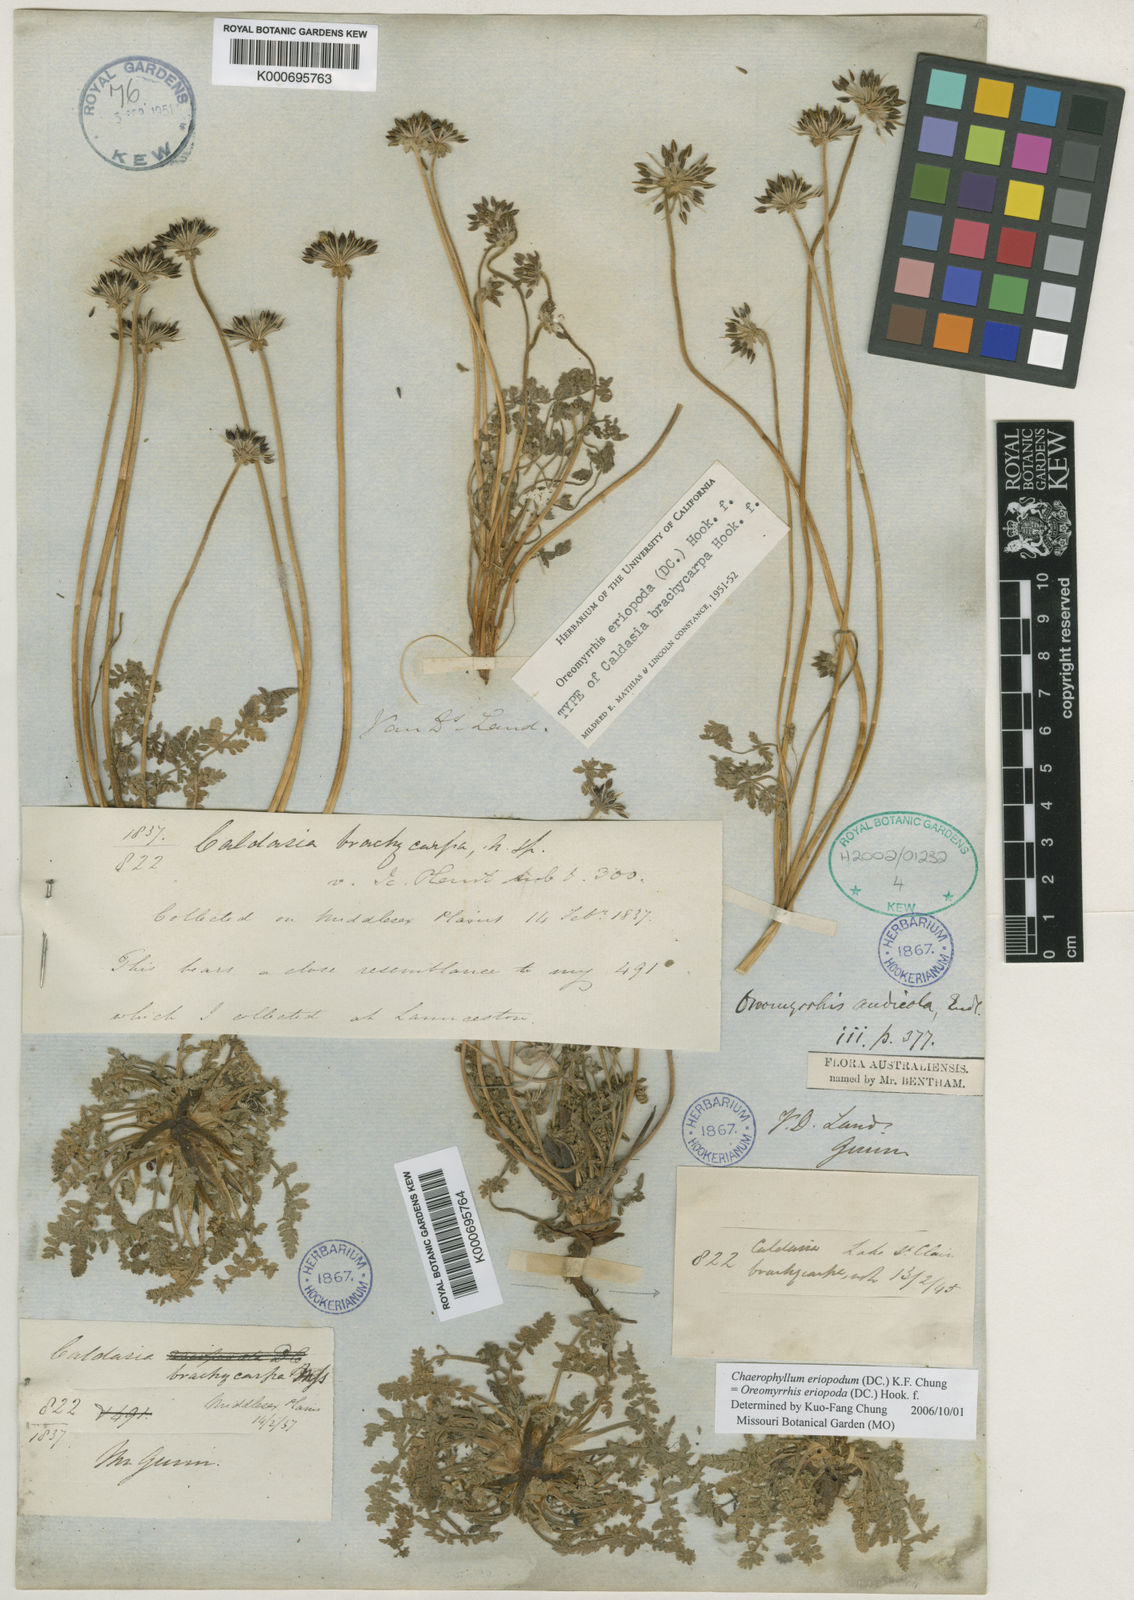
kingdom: Plantae
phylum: Tracheophyta
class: Magnoliopsida
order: Apiales
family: Apiaceae
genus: Chaerophyllum
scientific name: Chaerophyllum eriopodum
